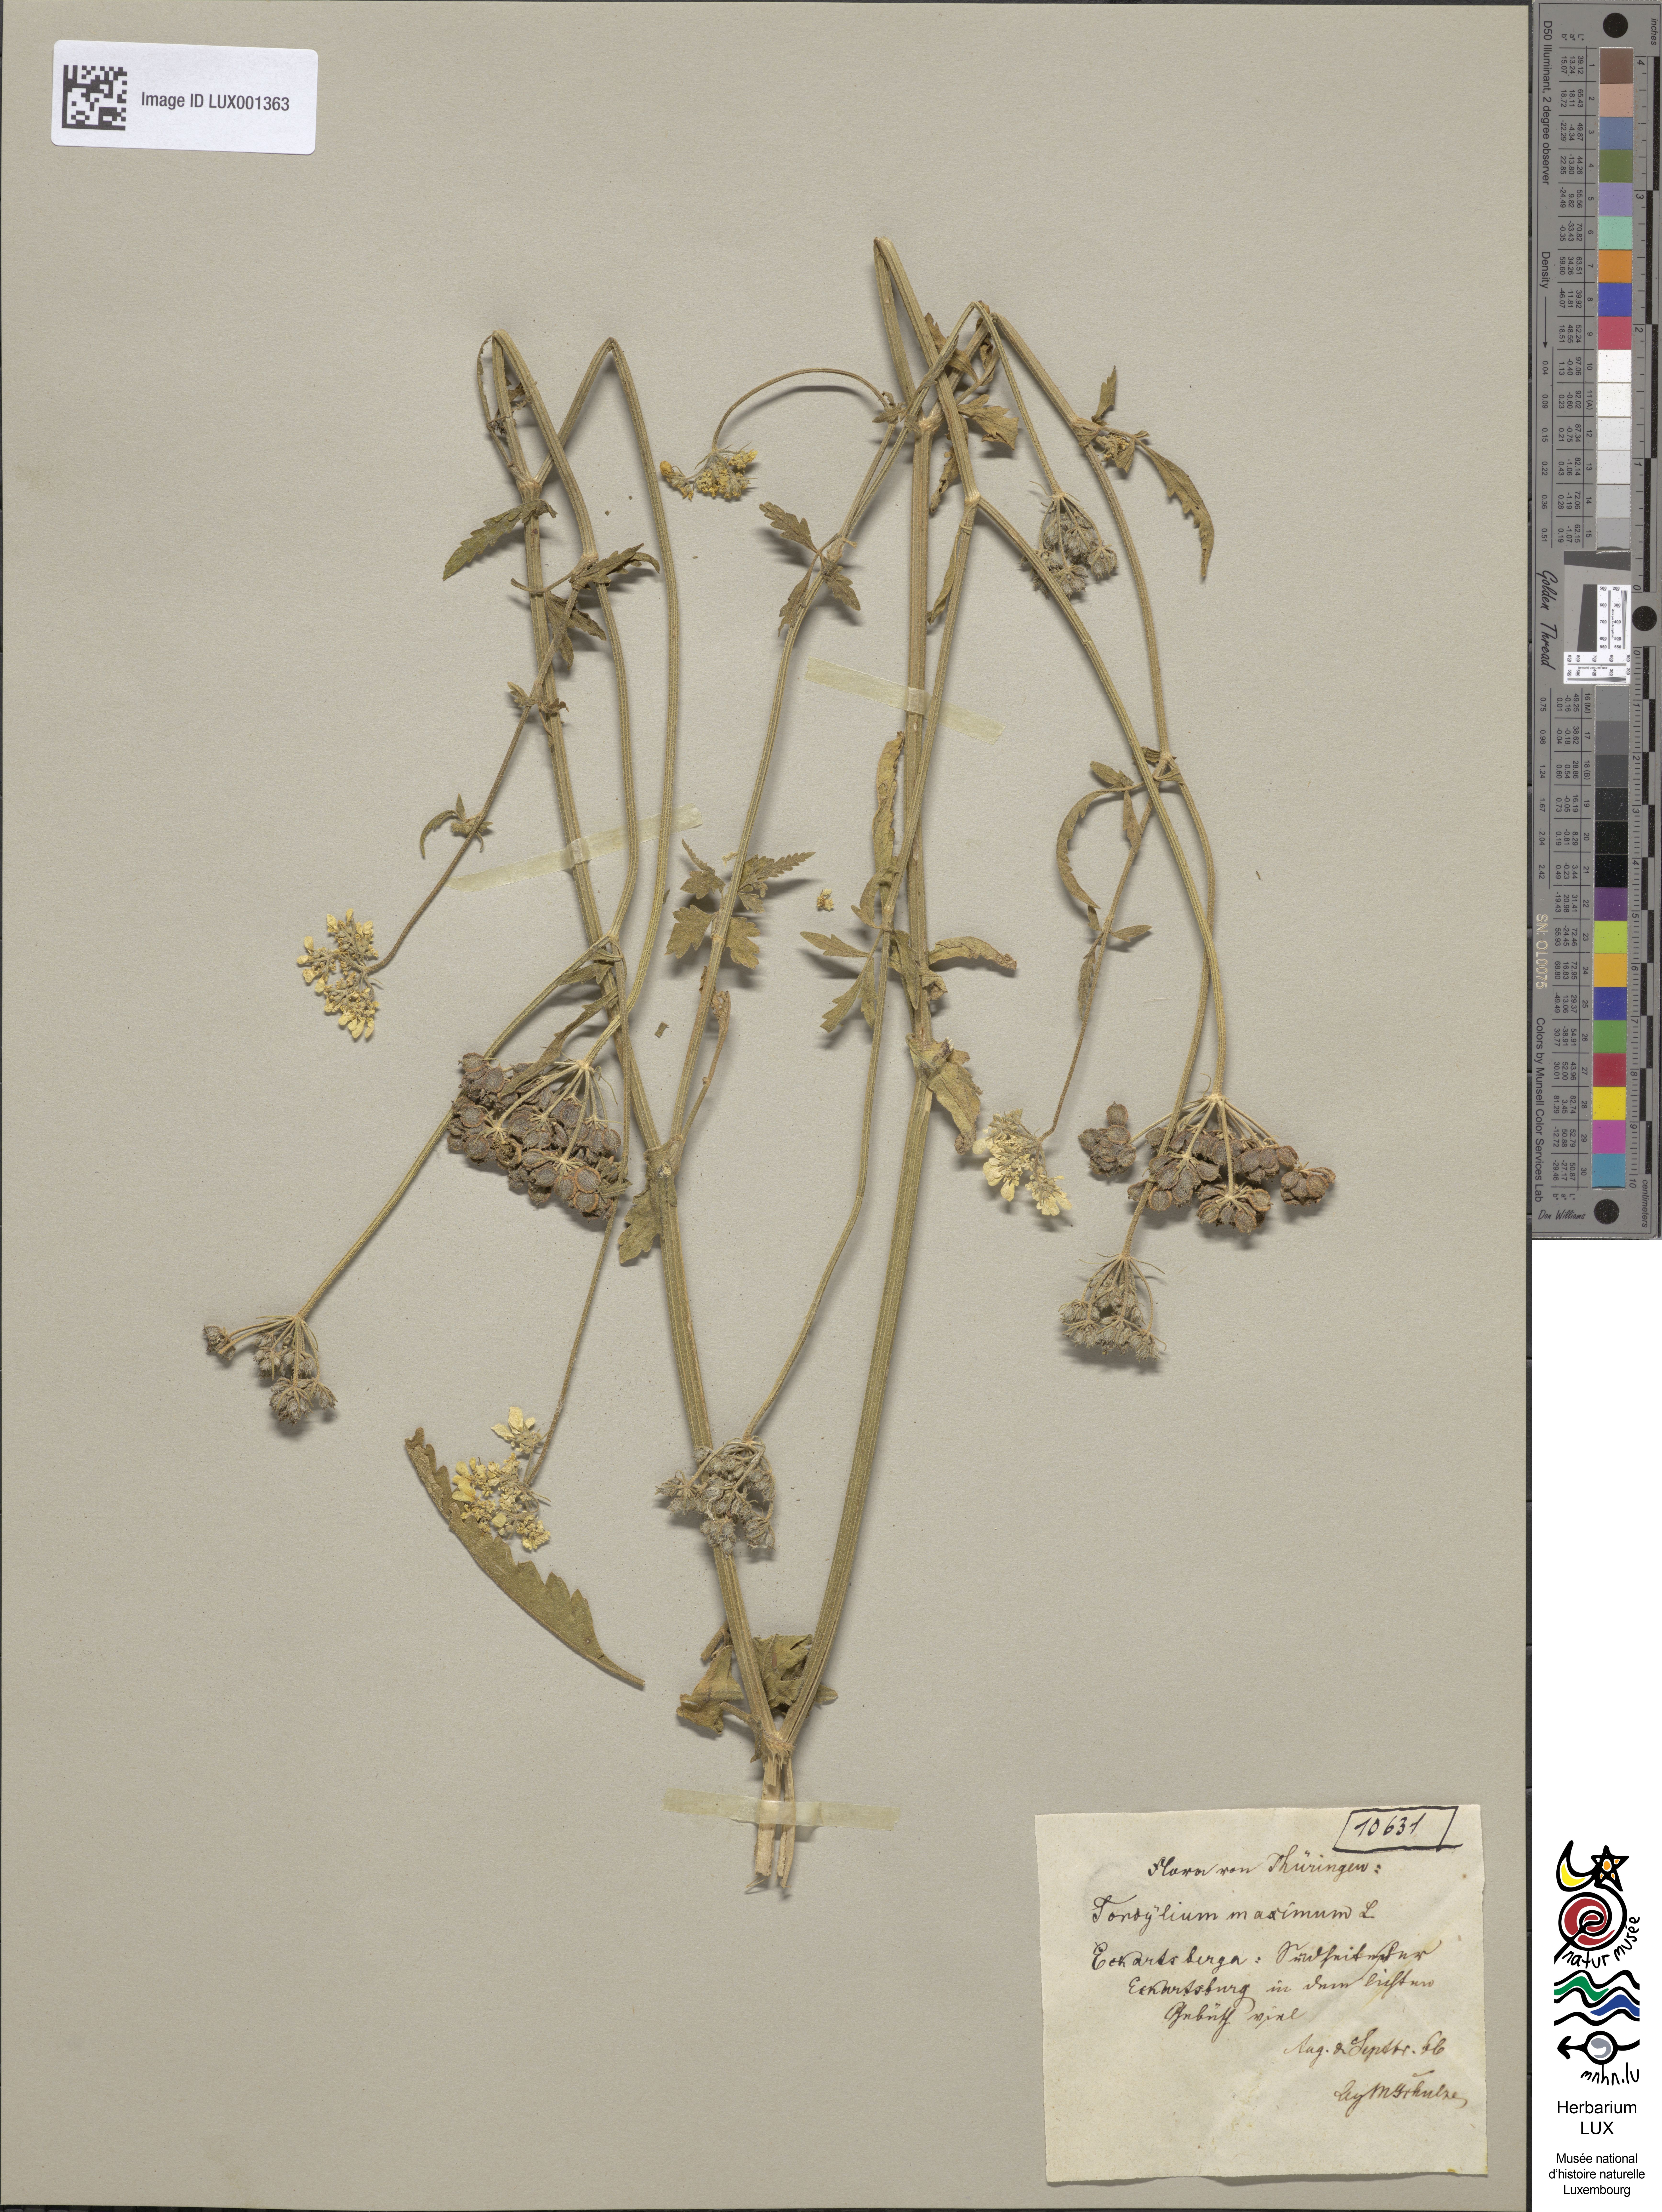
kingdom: Plantae
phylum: Tracheophyta
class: Magnoliopsida
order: Apiales
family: Apiaceae
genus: Tordylium
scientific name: Tordylium maximum
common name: Hartwort
